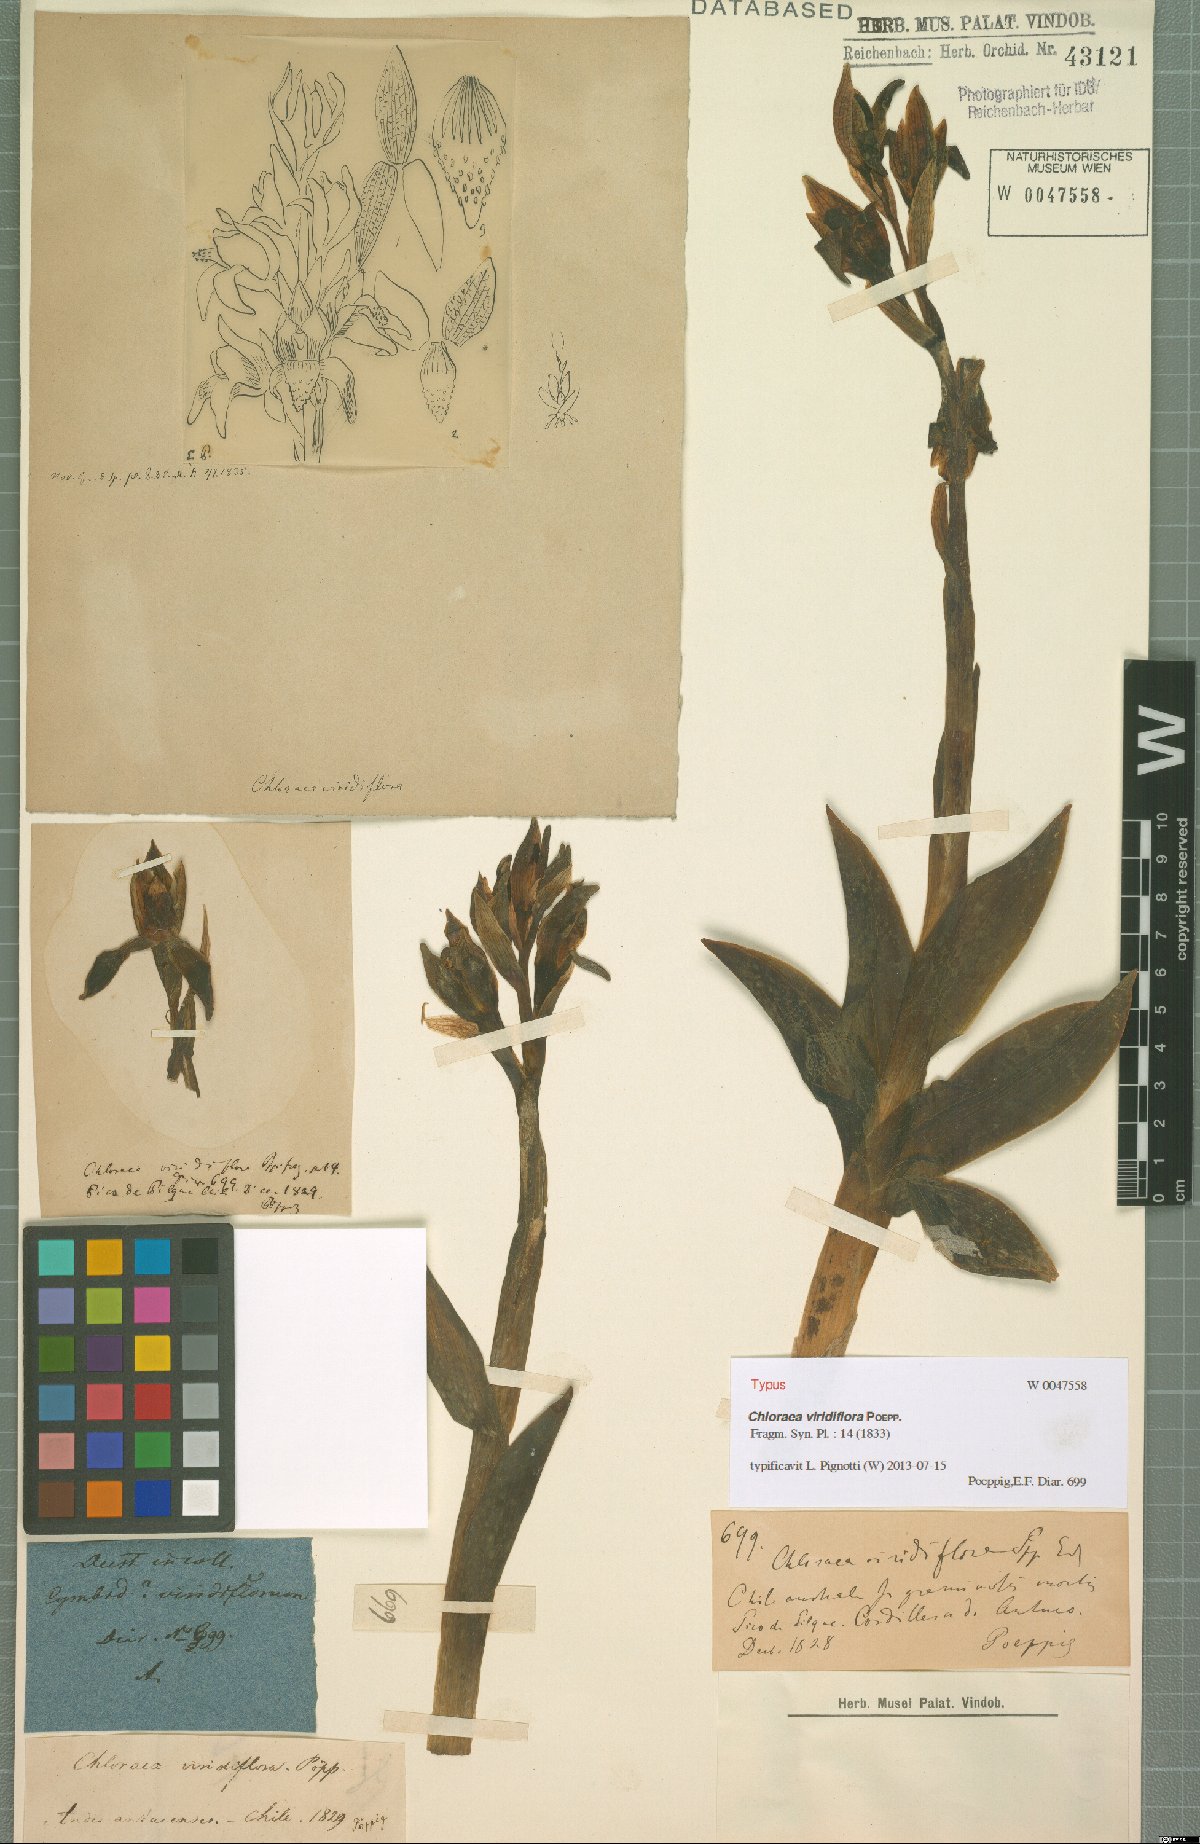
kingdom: Plantae
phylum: Tracheophyta
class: Liliopsida
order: Asparagales
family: Orchidaceae
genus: Chloraea
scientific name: Chloraea viridiflora
